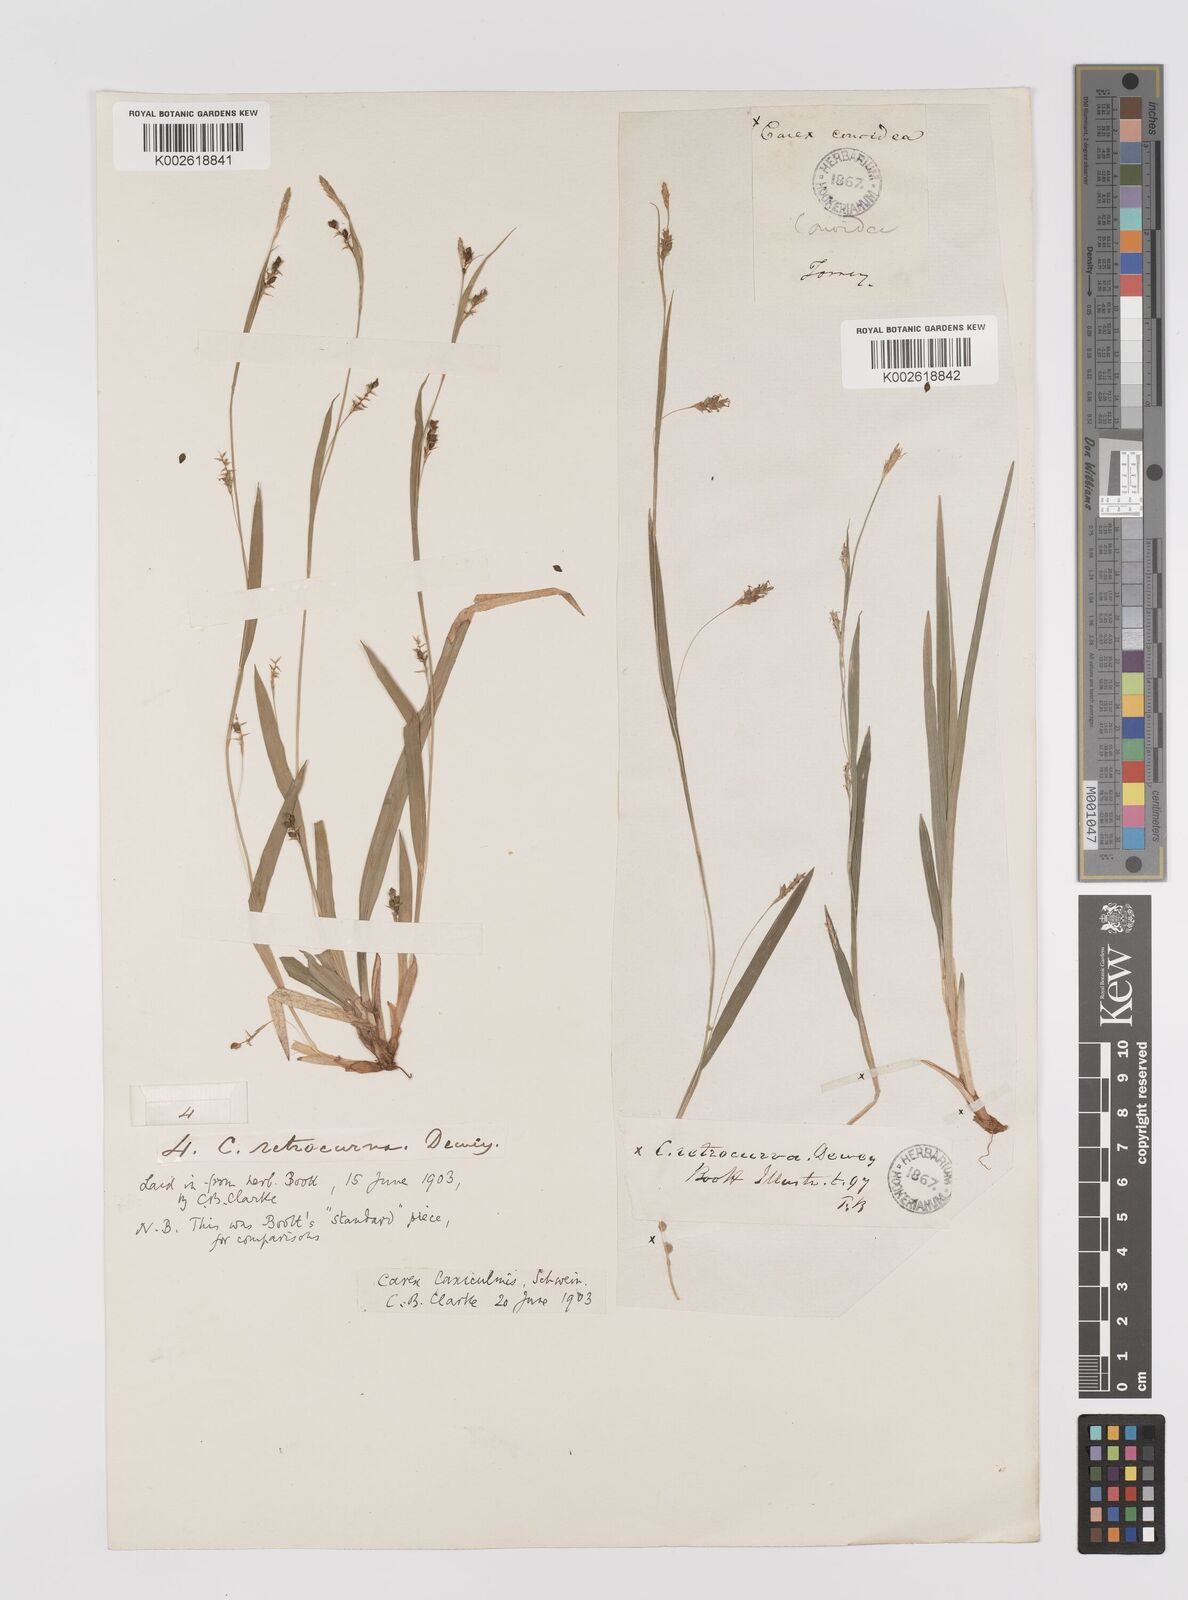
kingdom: Plantae
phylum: Tracheophyta
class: Liliopsida
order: Poales
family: Cyperaceae
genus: Carex
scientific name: Carex laxiculmis
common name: Spreading sedge
